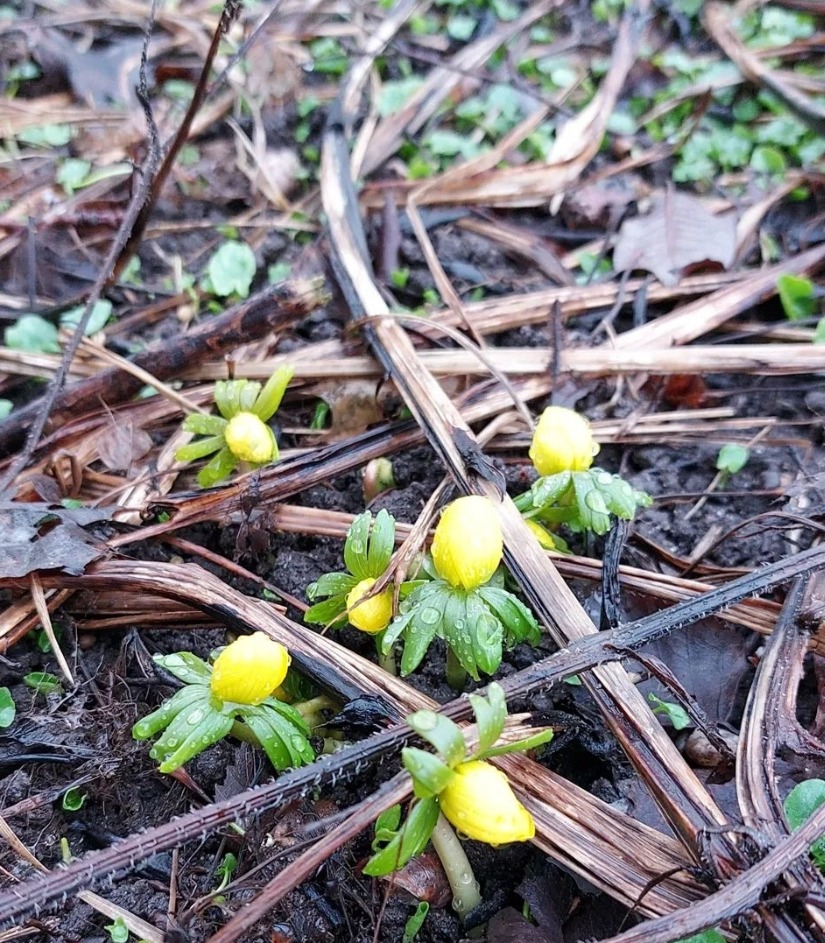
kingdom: Plantae
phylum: Tracheophyta
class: Magnoliopsida
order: Ranunculales
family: Ranunculaceae
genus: Eranthis
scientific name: Eranthis hyemalis
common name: Erantis
